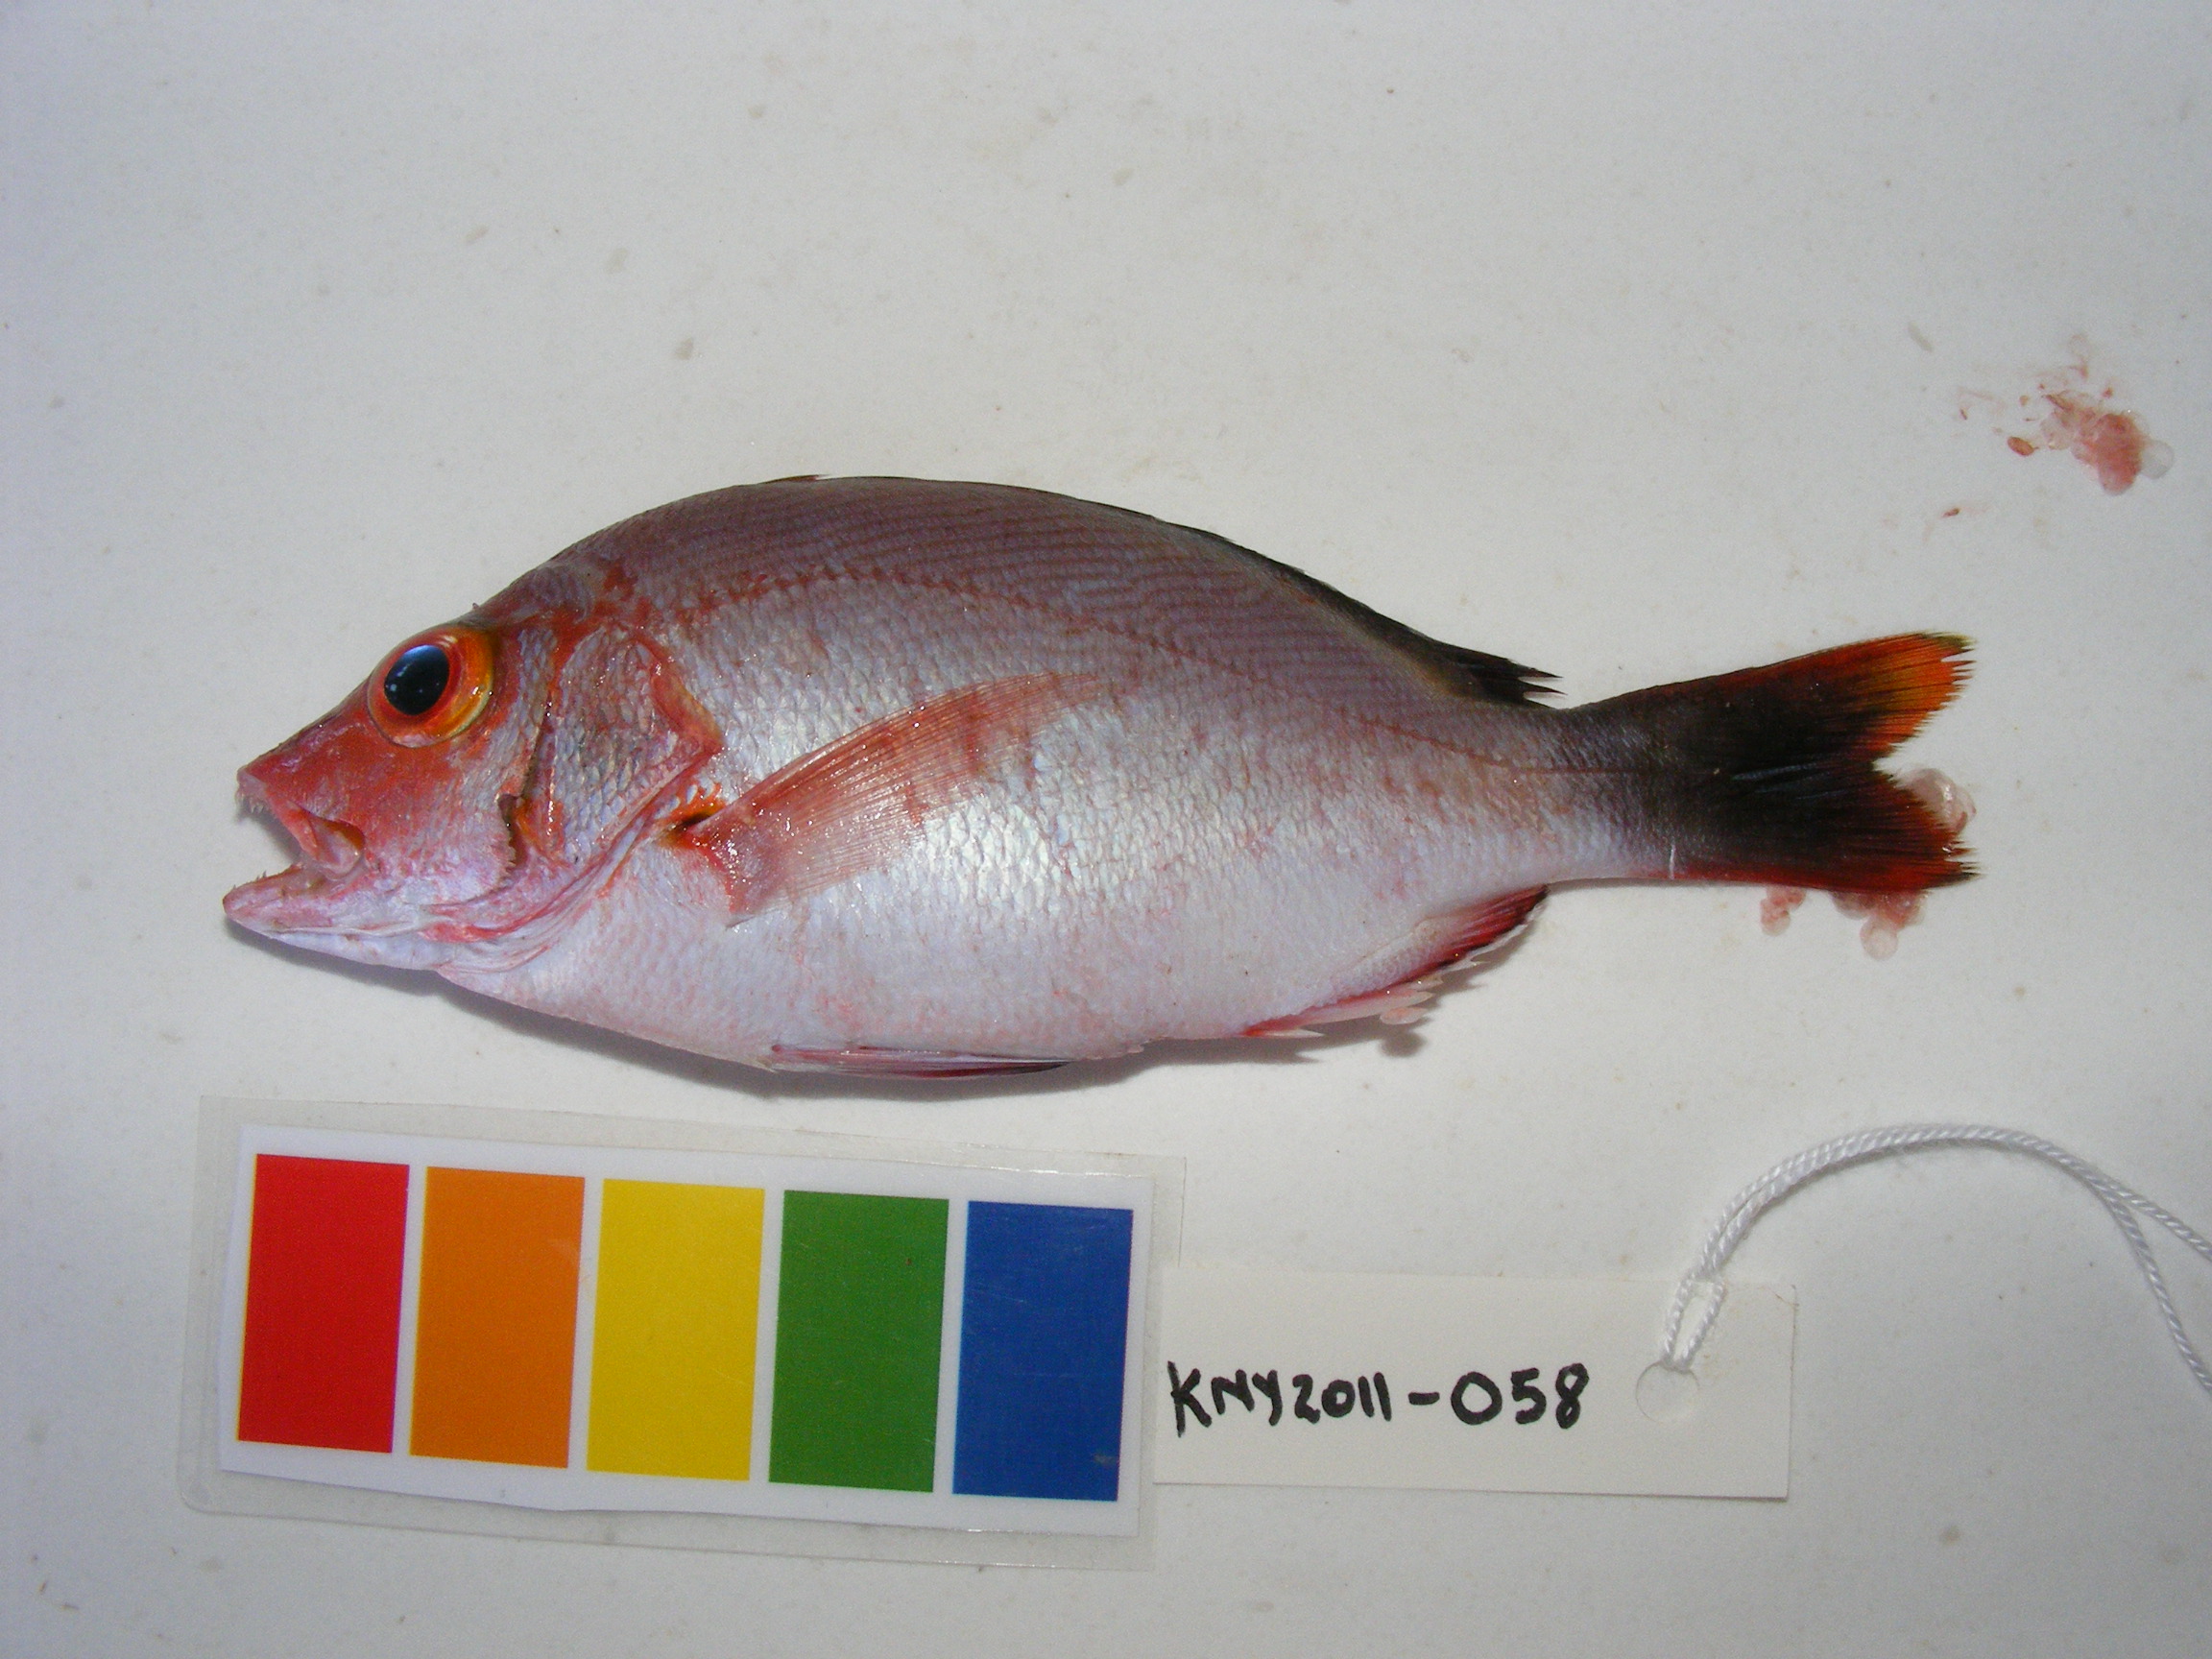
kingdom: Animalia
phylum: Chordata
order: Perciformes
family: Lutjanidae
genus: Lutjanus
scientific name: Lutjanus gibbus
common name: Humpback snapper
